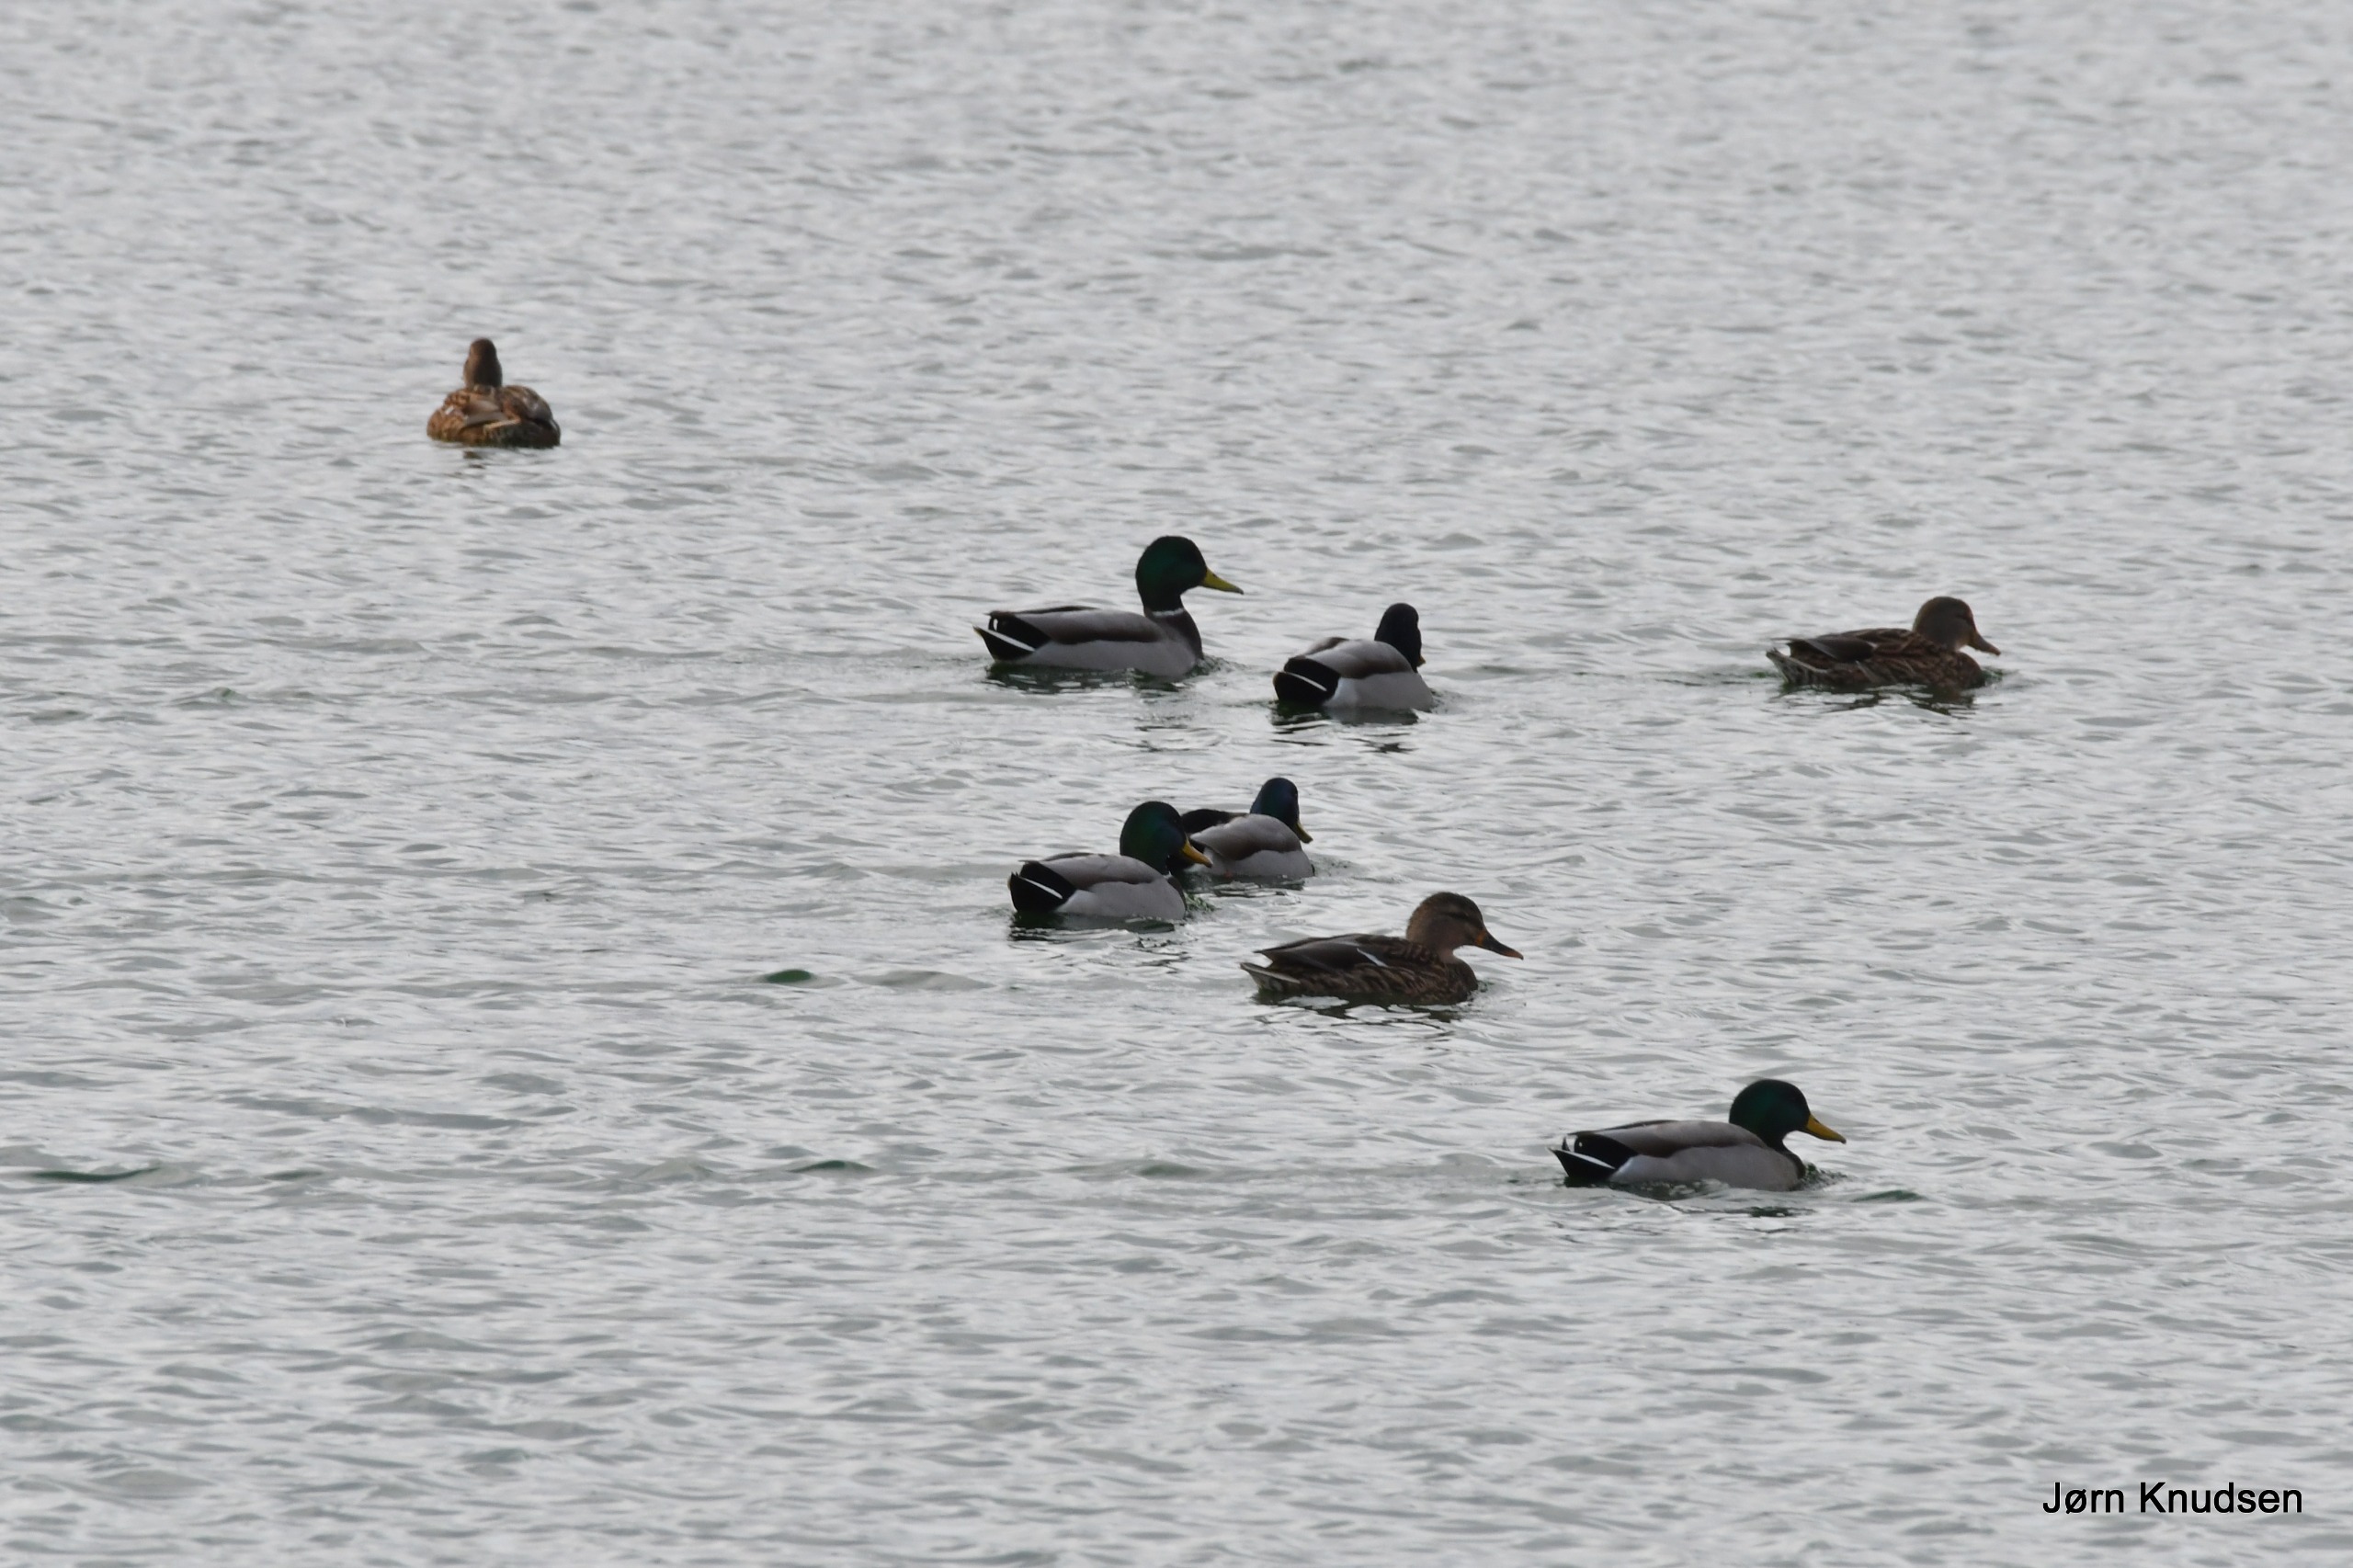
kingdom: Animalia
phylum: Chordata
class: Aves
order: Anseriformes
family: Anatidae
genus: Anas
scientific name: Anas platyrhynchos
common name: Gråand
